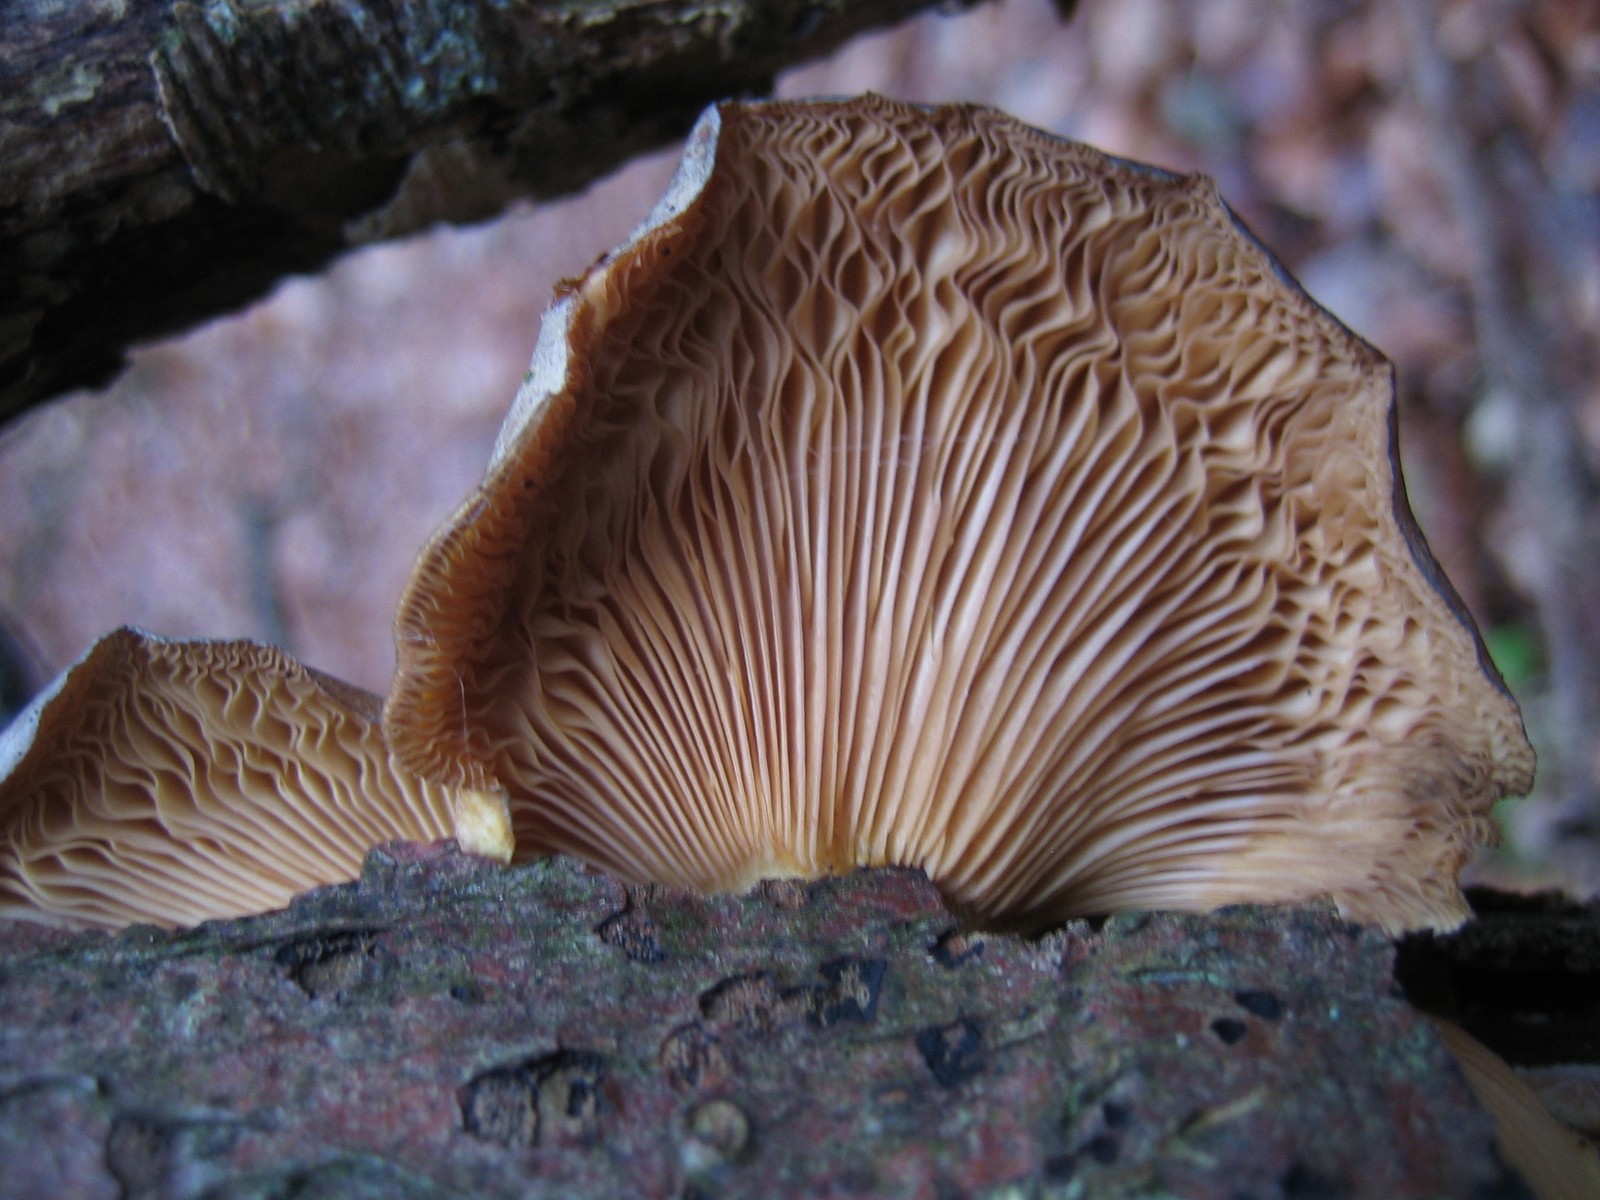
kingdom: Fungi
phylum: Basidiomycota
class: Agaricomycetes
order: Agaricales
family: Sarcomyxaceae
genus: Sarcomyxa
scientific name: Sarcomyxa serotina
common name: gummihat
